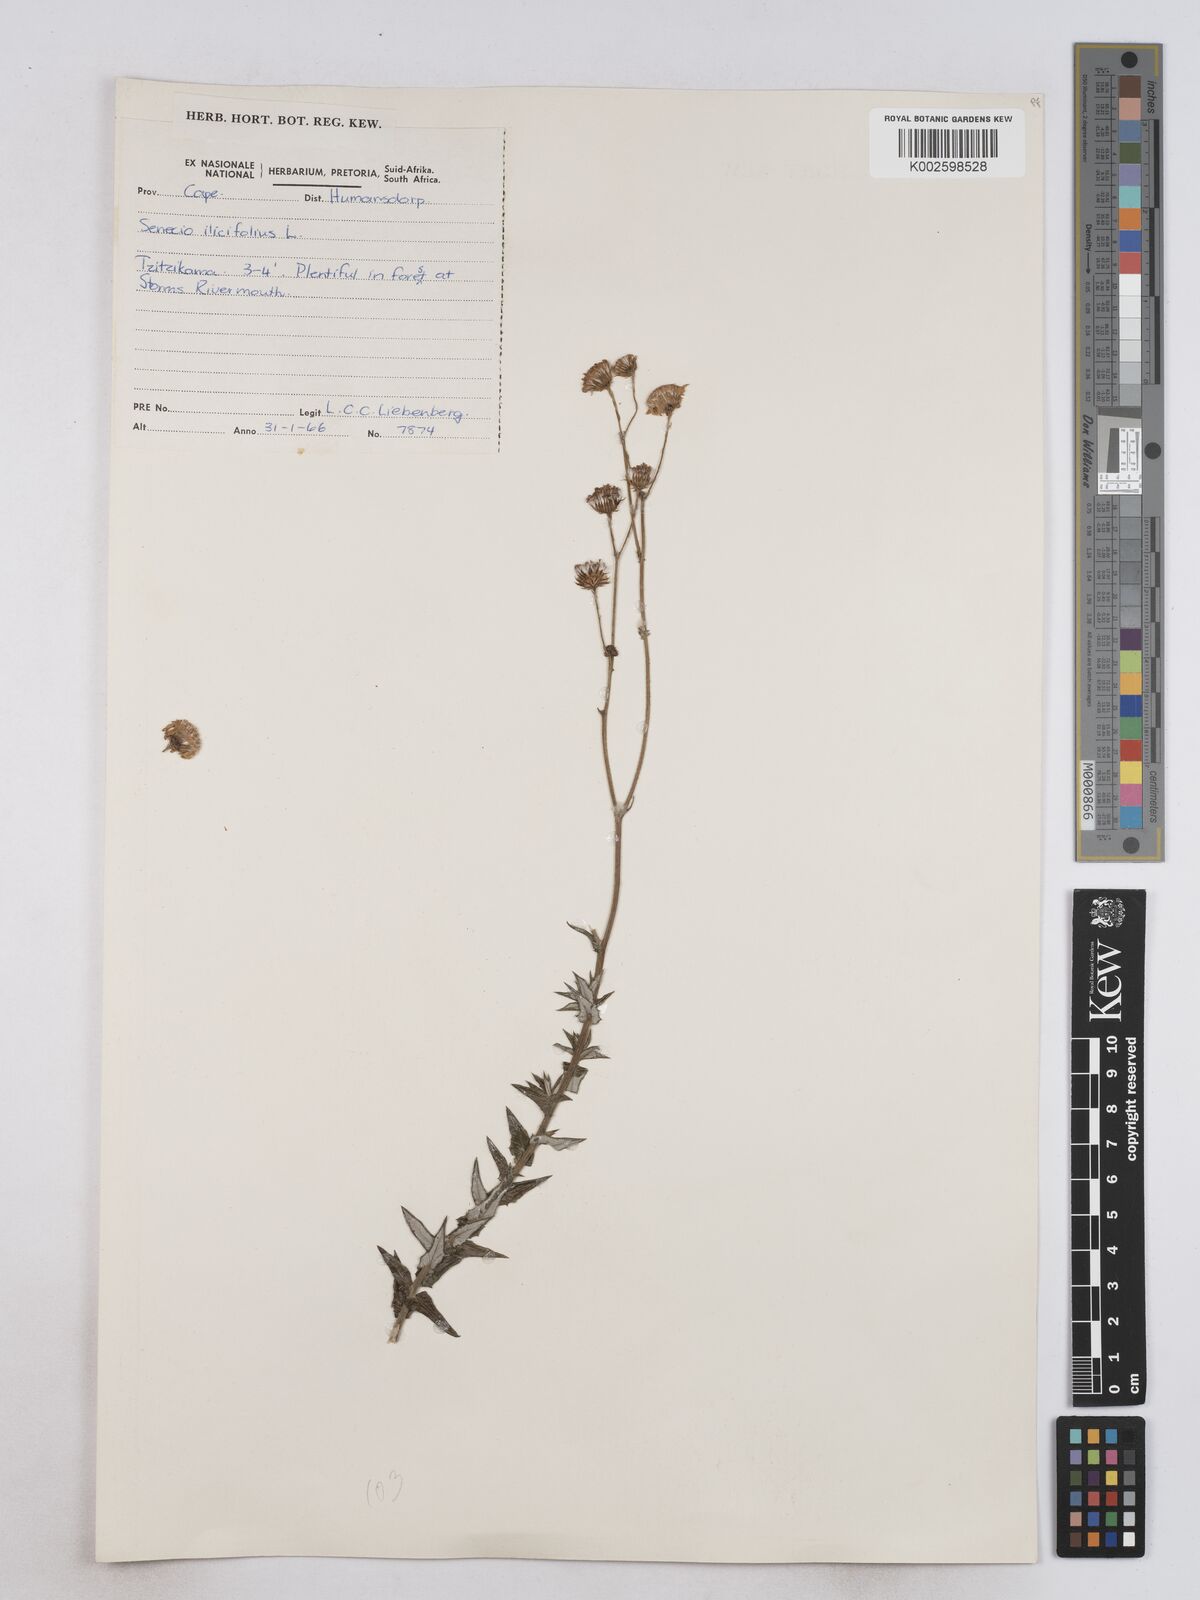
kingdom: Plantae
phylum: Tracheophyta
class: Magnoliopsida
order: Asterales
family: Asteraceae
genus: Senecio
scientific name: Senecio ilicifolius
